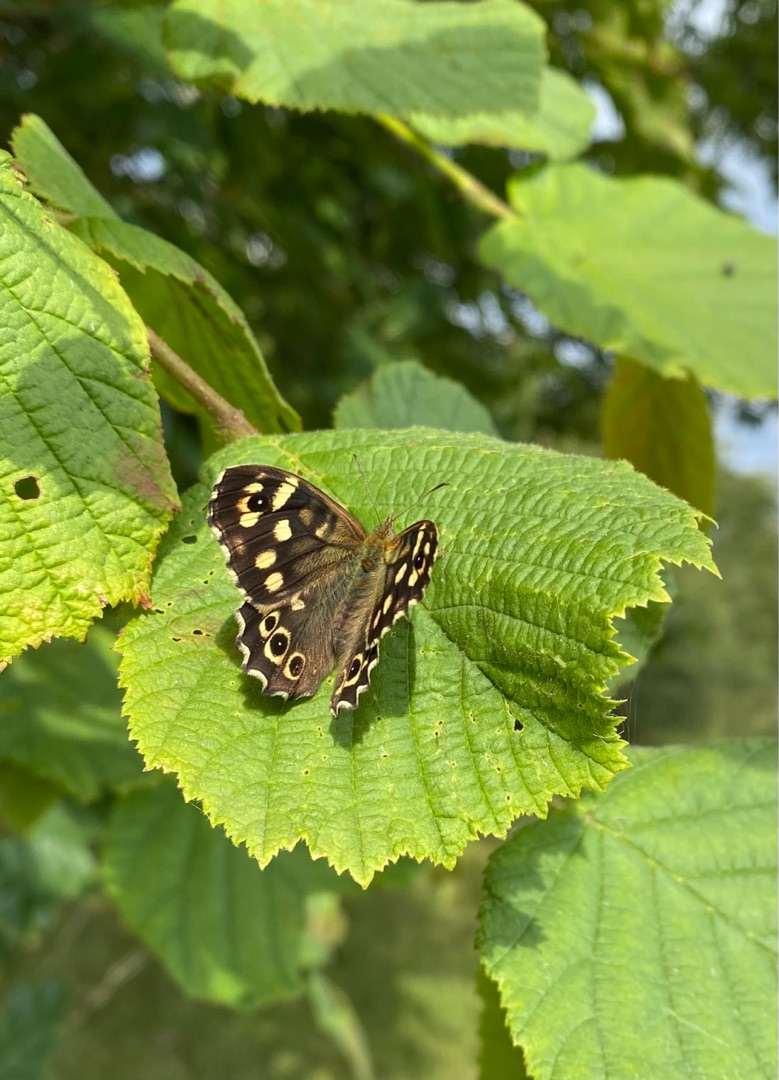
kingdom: Animalia
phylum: Arthropoda
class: Insecta
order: Lepidoptera
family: Nymphalidae
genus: Pararge
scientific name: Pararge aegeria
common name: Skovrandøje
